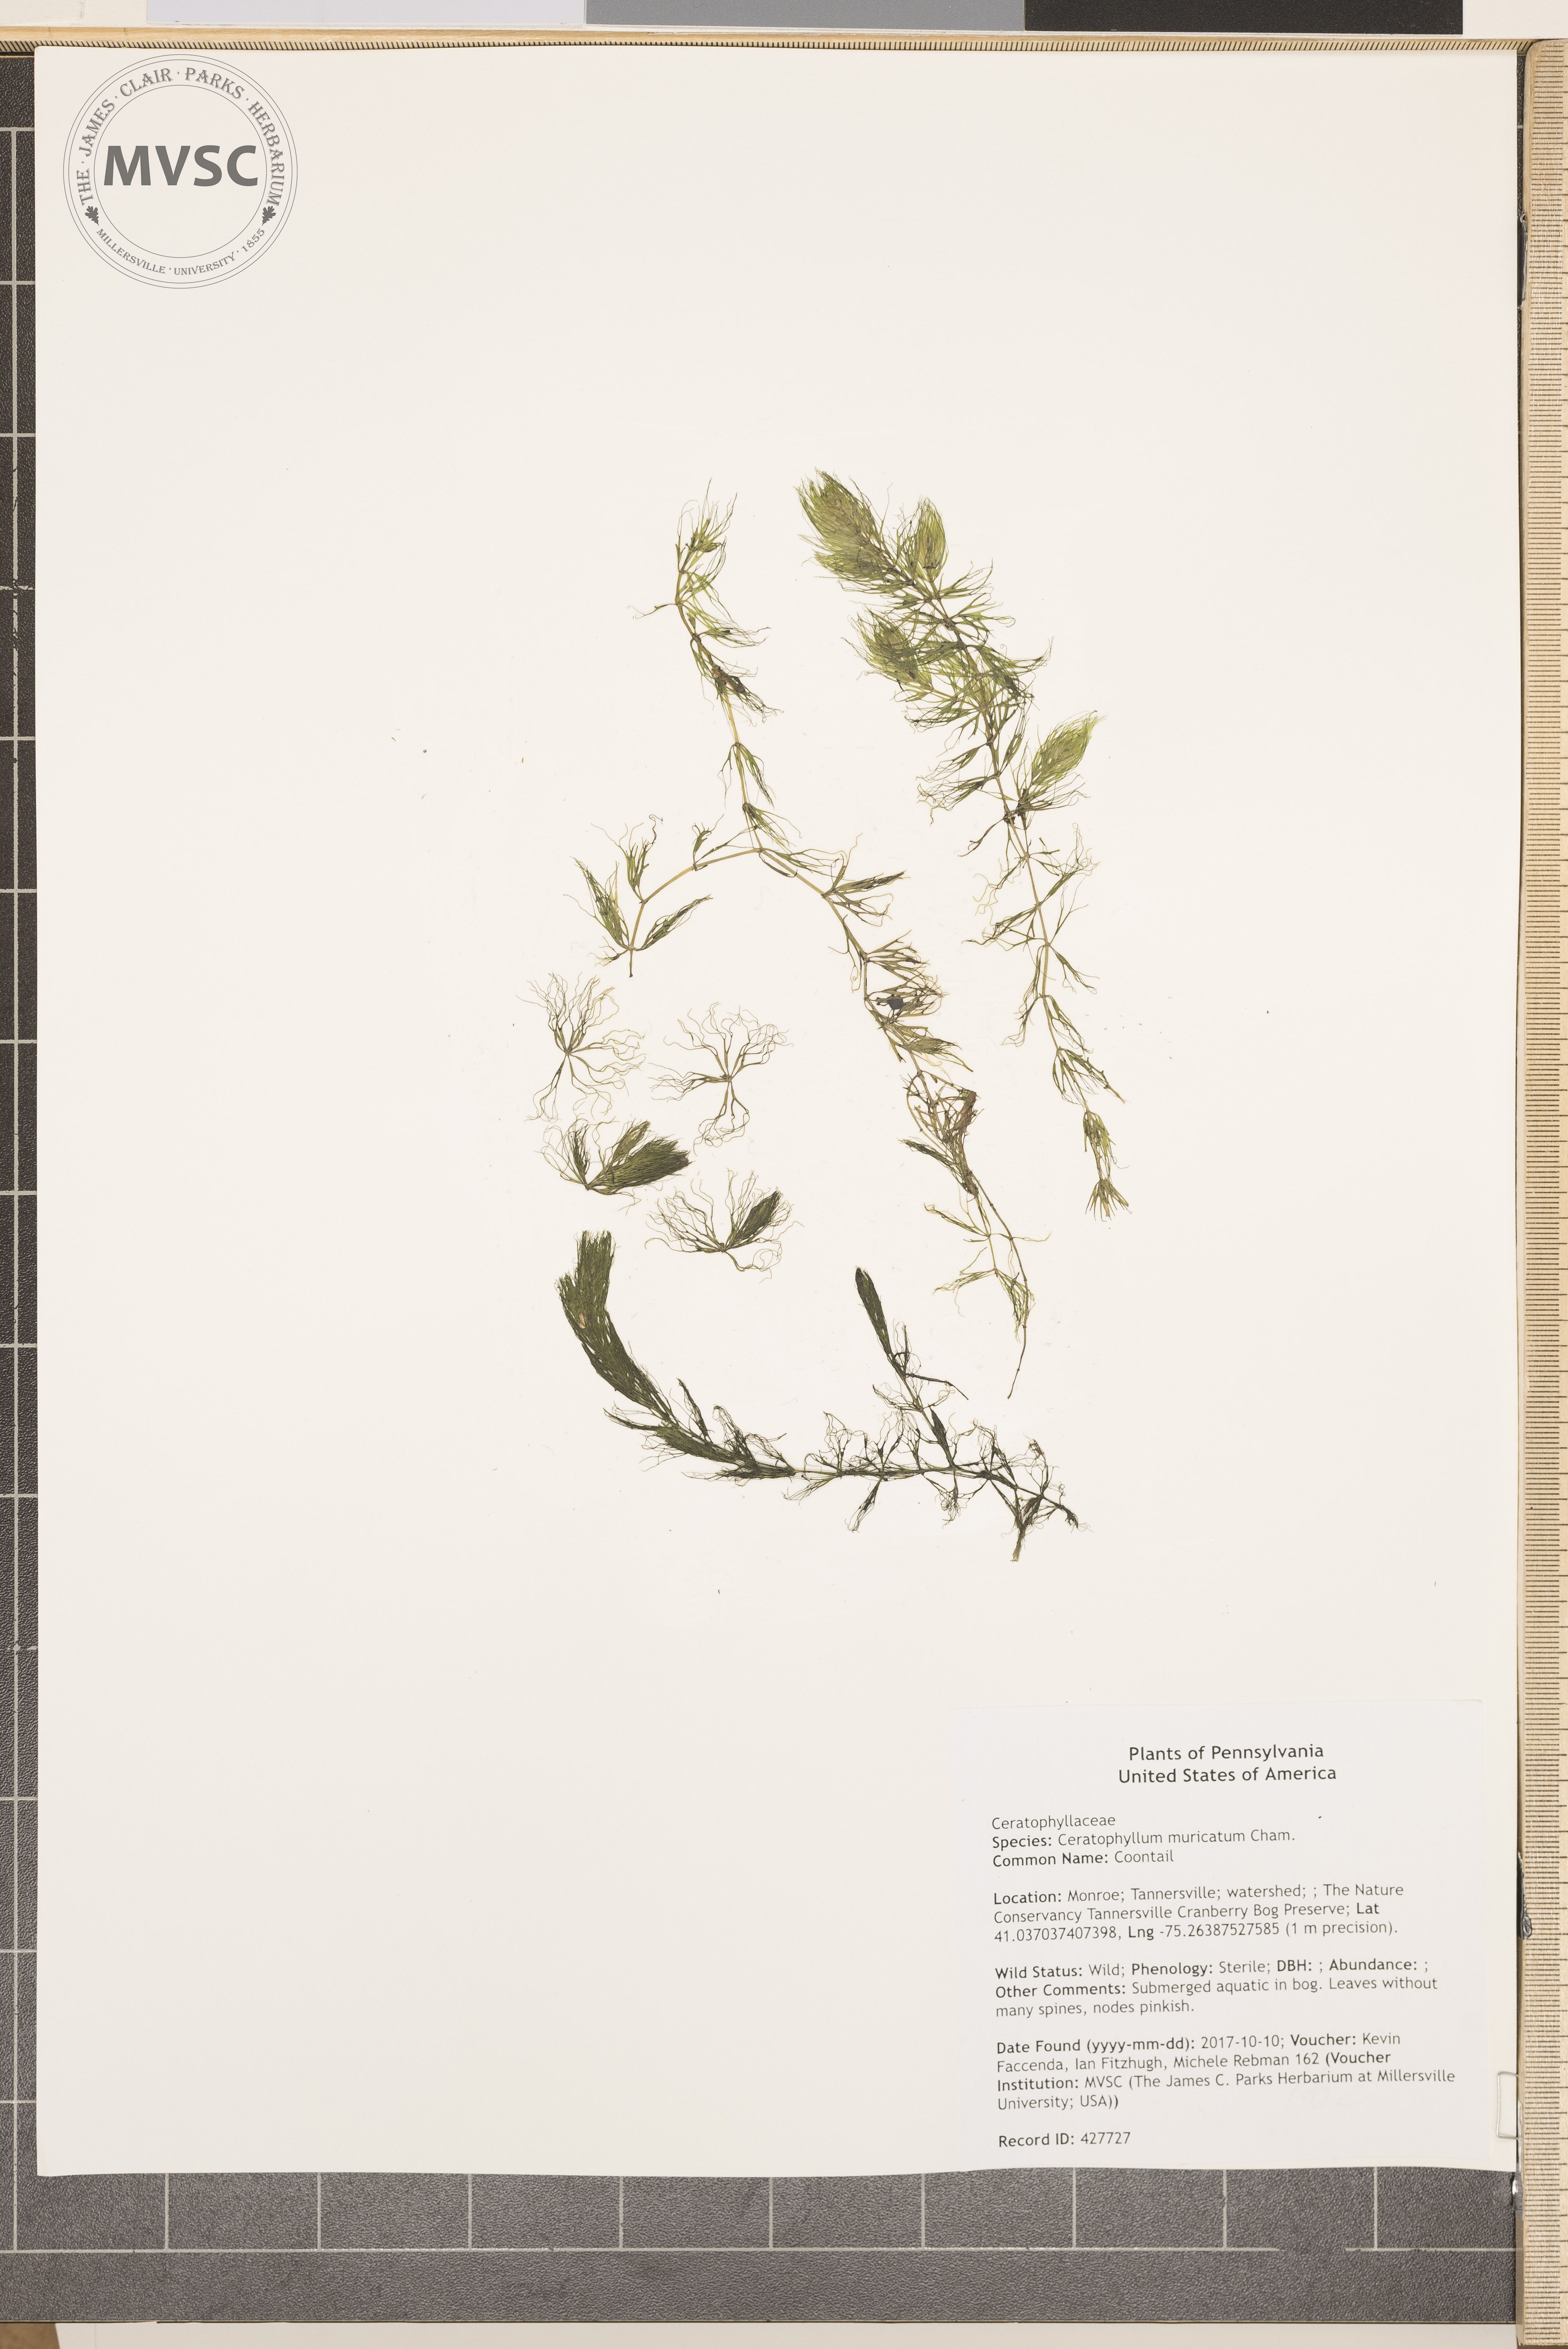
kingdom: Plantae
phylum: Tracheophyta
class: Magnoliopsida
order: Ceratophyllales
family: Ceratophyllaceae
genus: Ceratophyllum
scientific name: Ceratophyllum muricatum
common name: Coontail
